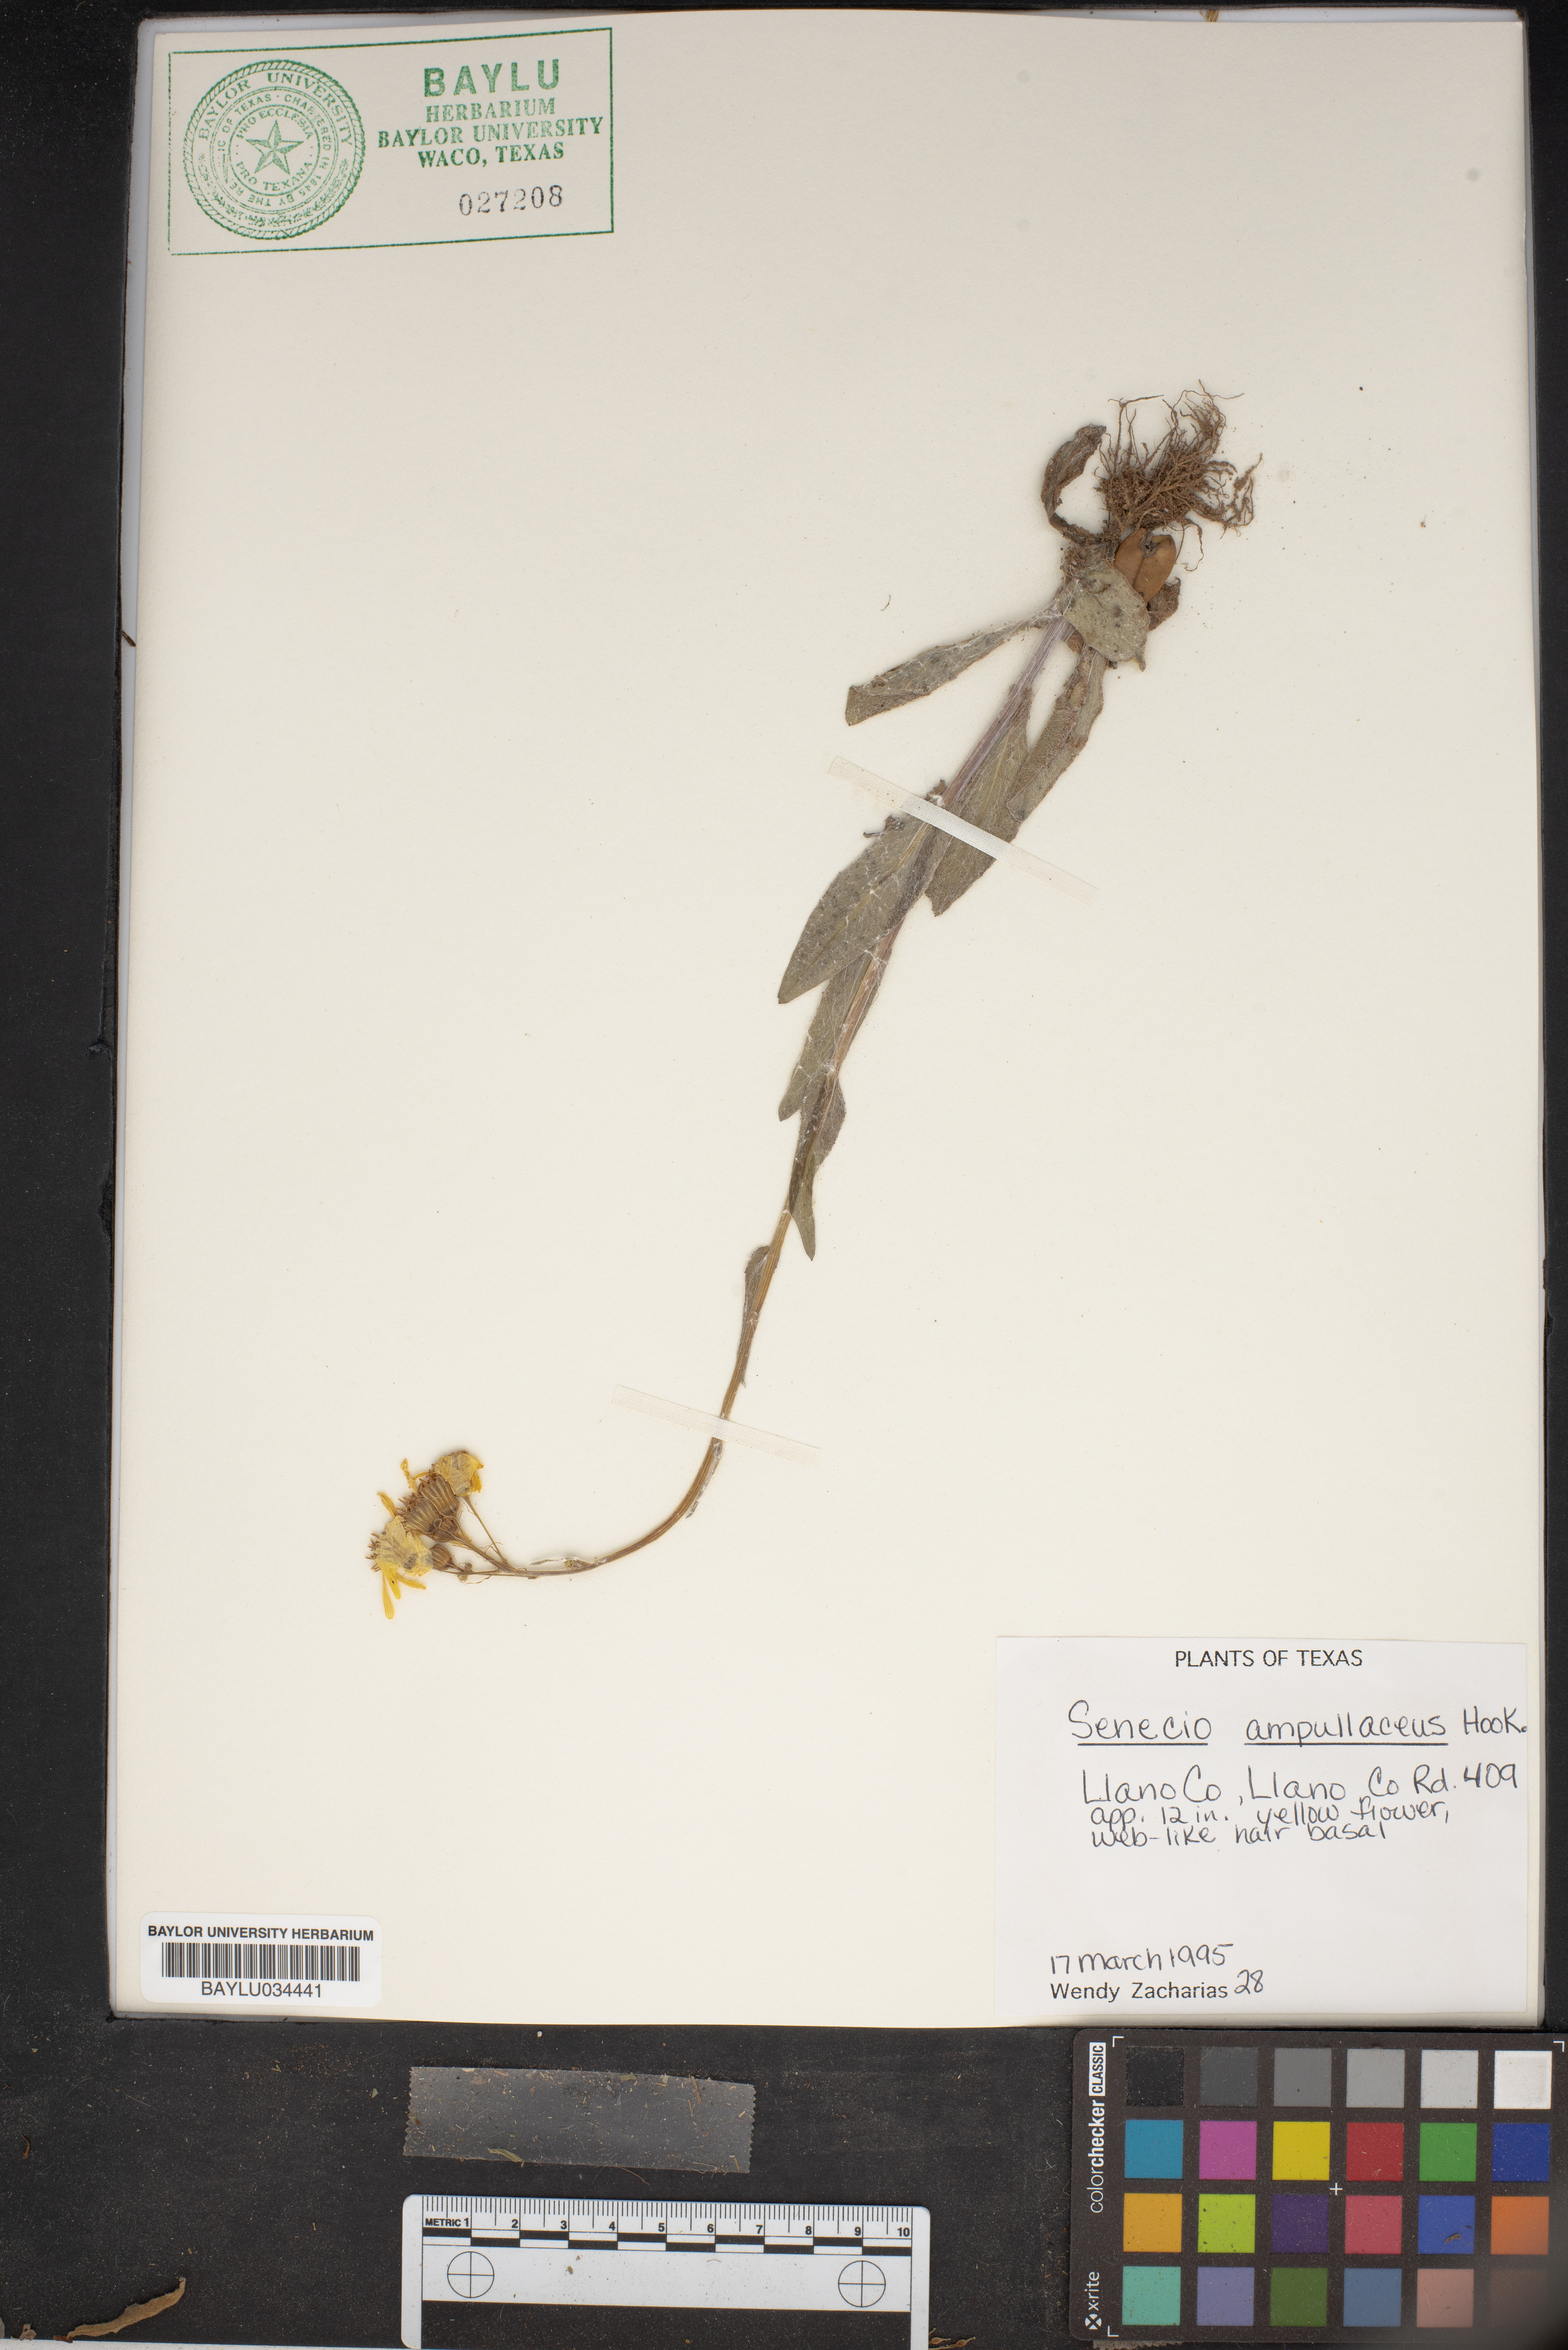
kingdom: Plantae
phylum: Tracheophyta
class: Magnoliopsida
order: Asterales
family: Asteraceae
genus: Senecio
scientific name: Senecio ampullaceus
